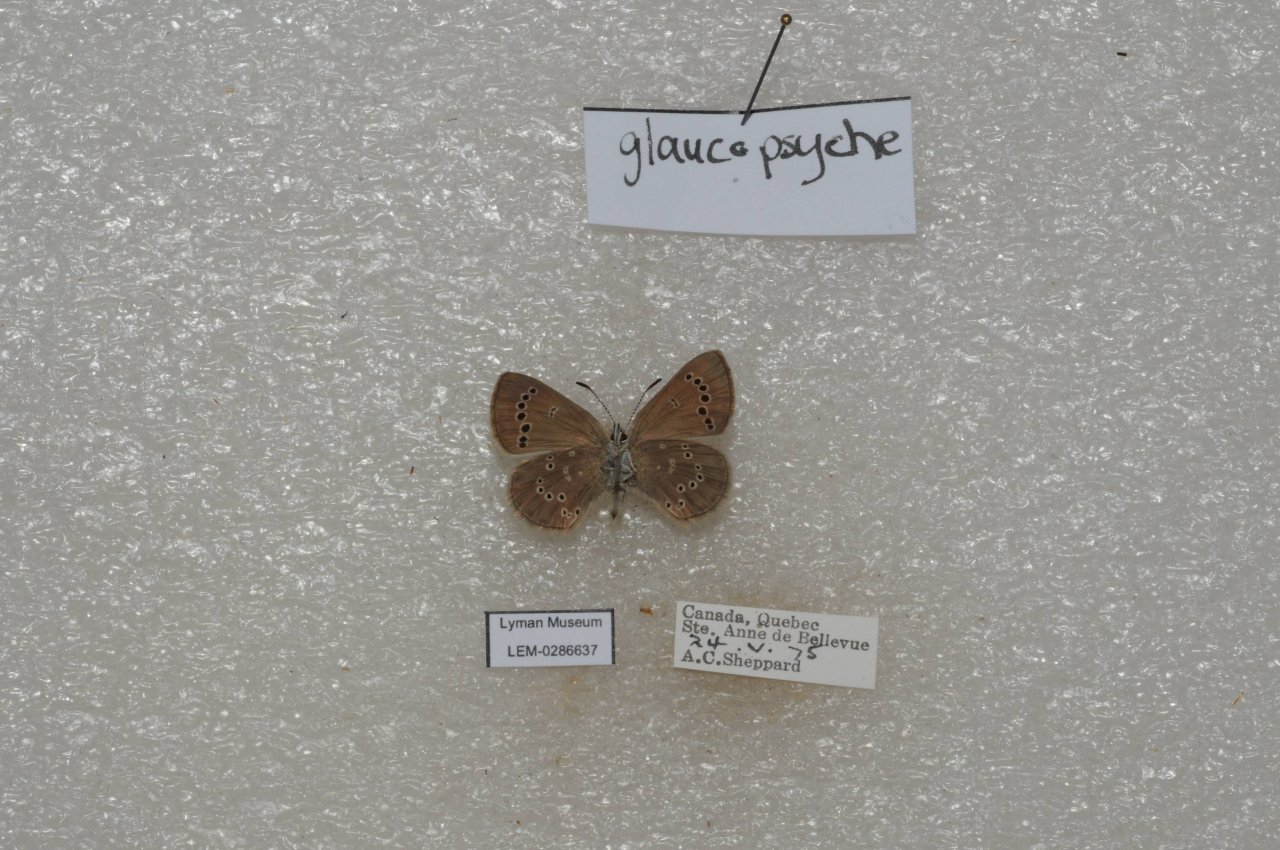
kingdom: Animalia
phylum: Arthropoda
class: Insecta
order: Lepidoptera
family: Lycaenidae
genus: Glaucopsyche
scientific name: Glaucopsyche lygdamus
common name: Silvery Blue
